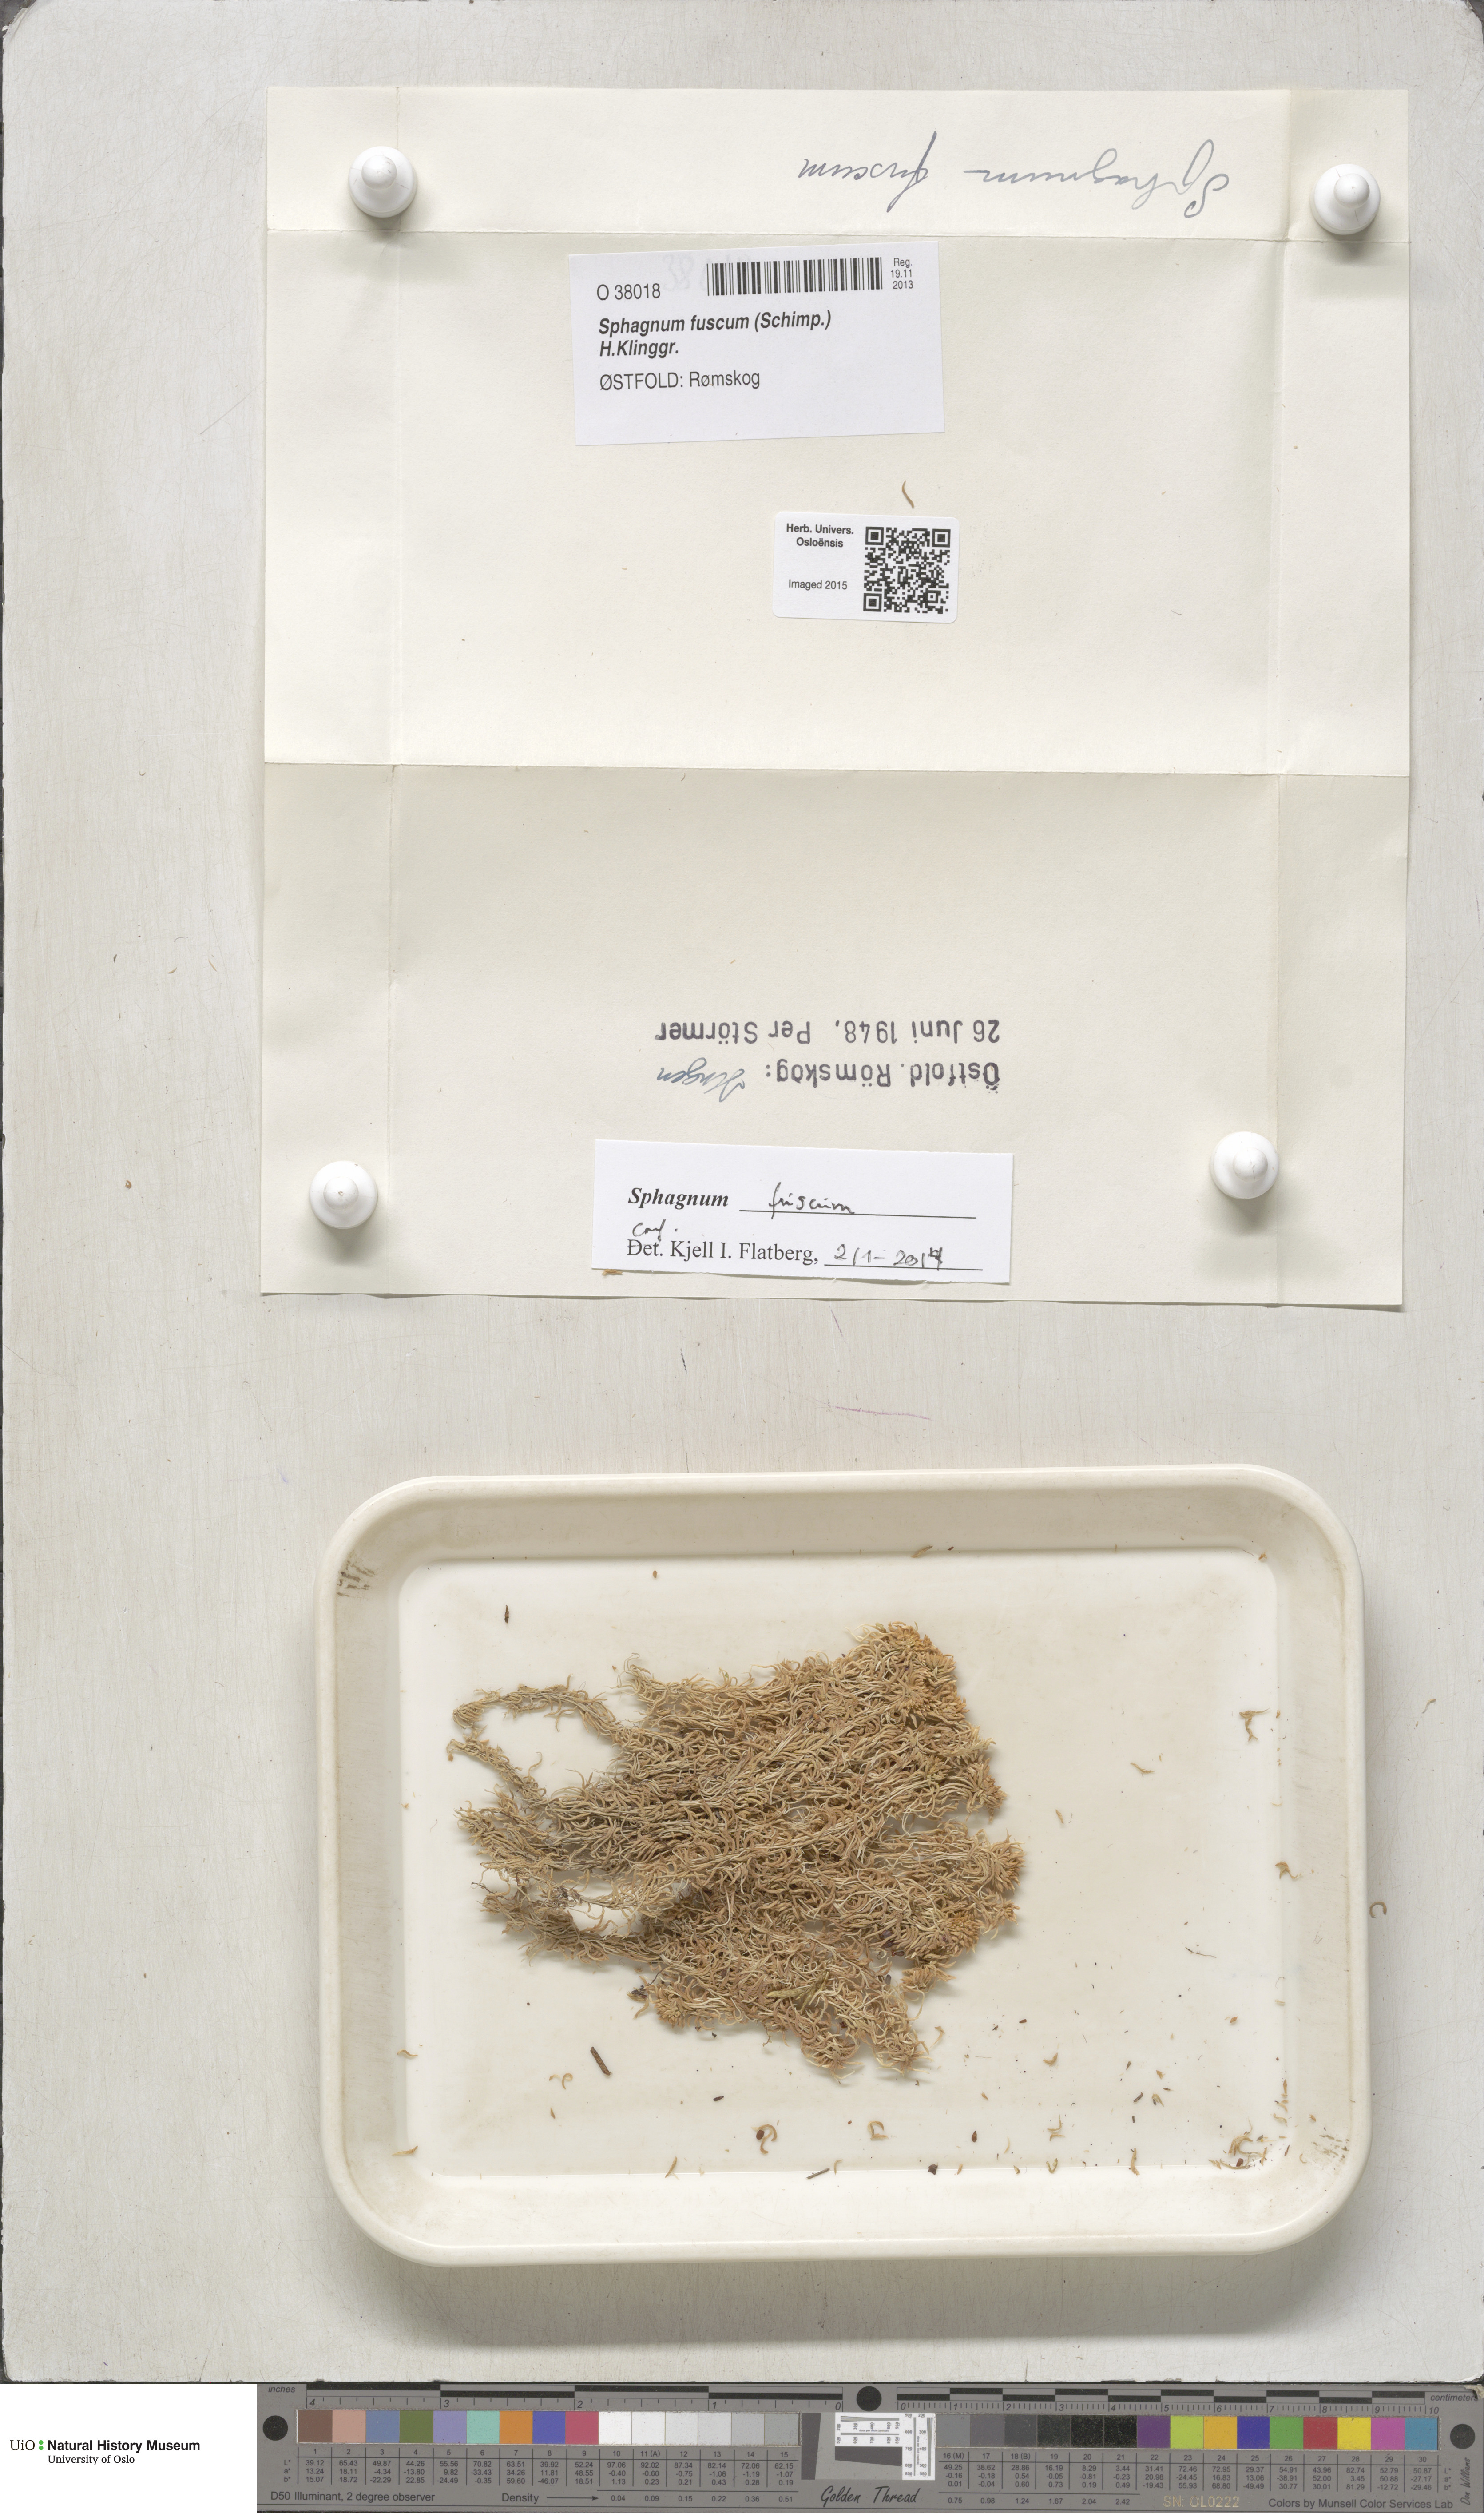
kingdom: Plantae
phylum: Bryophyta
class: Sphagnopsida
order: Sphagnales
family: Sphagnaceae
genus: Sphagnum
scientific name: Sphagnum fuscum
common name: Brown peat moss
